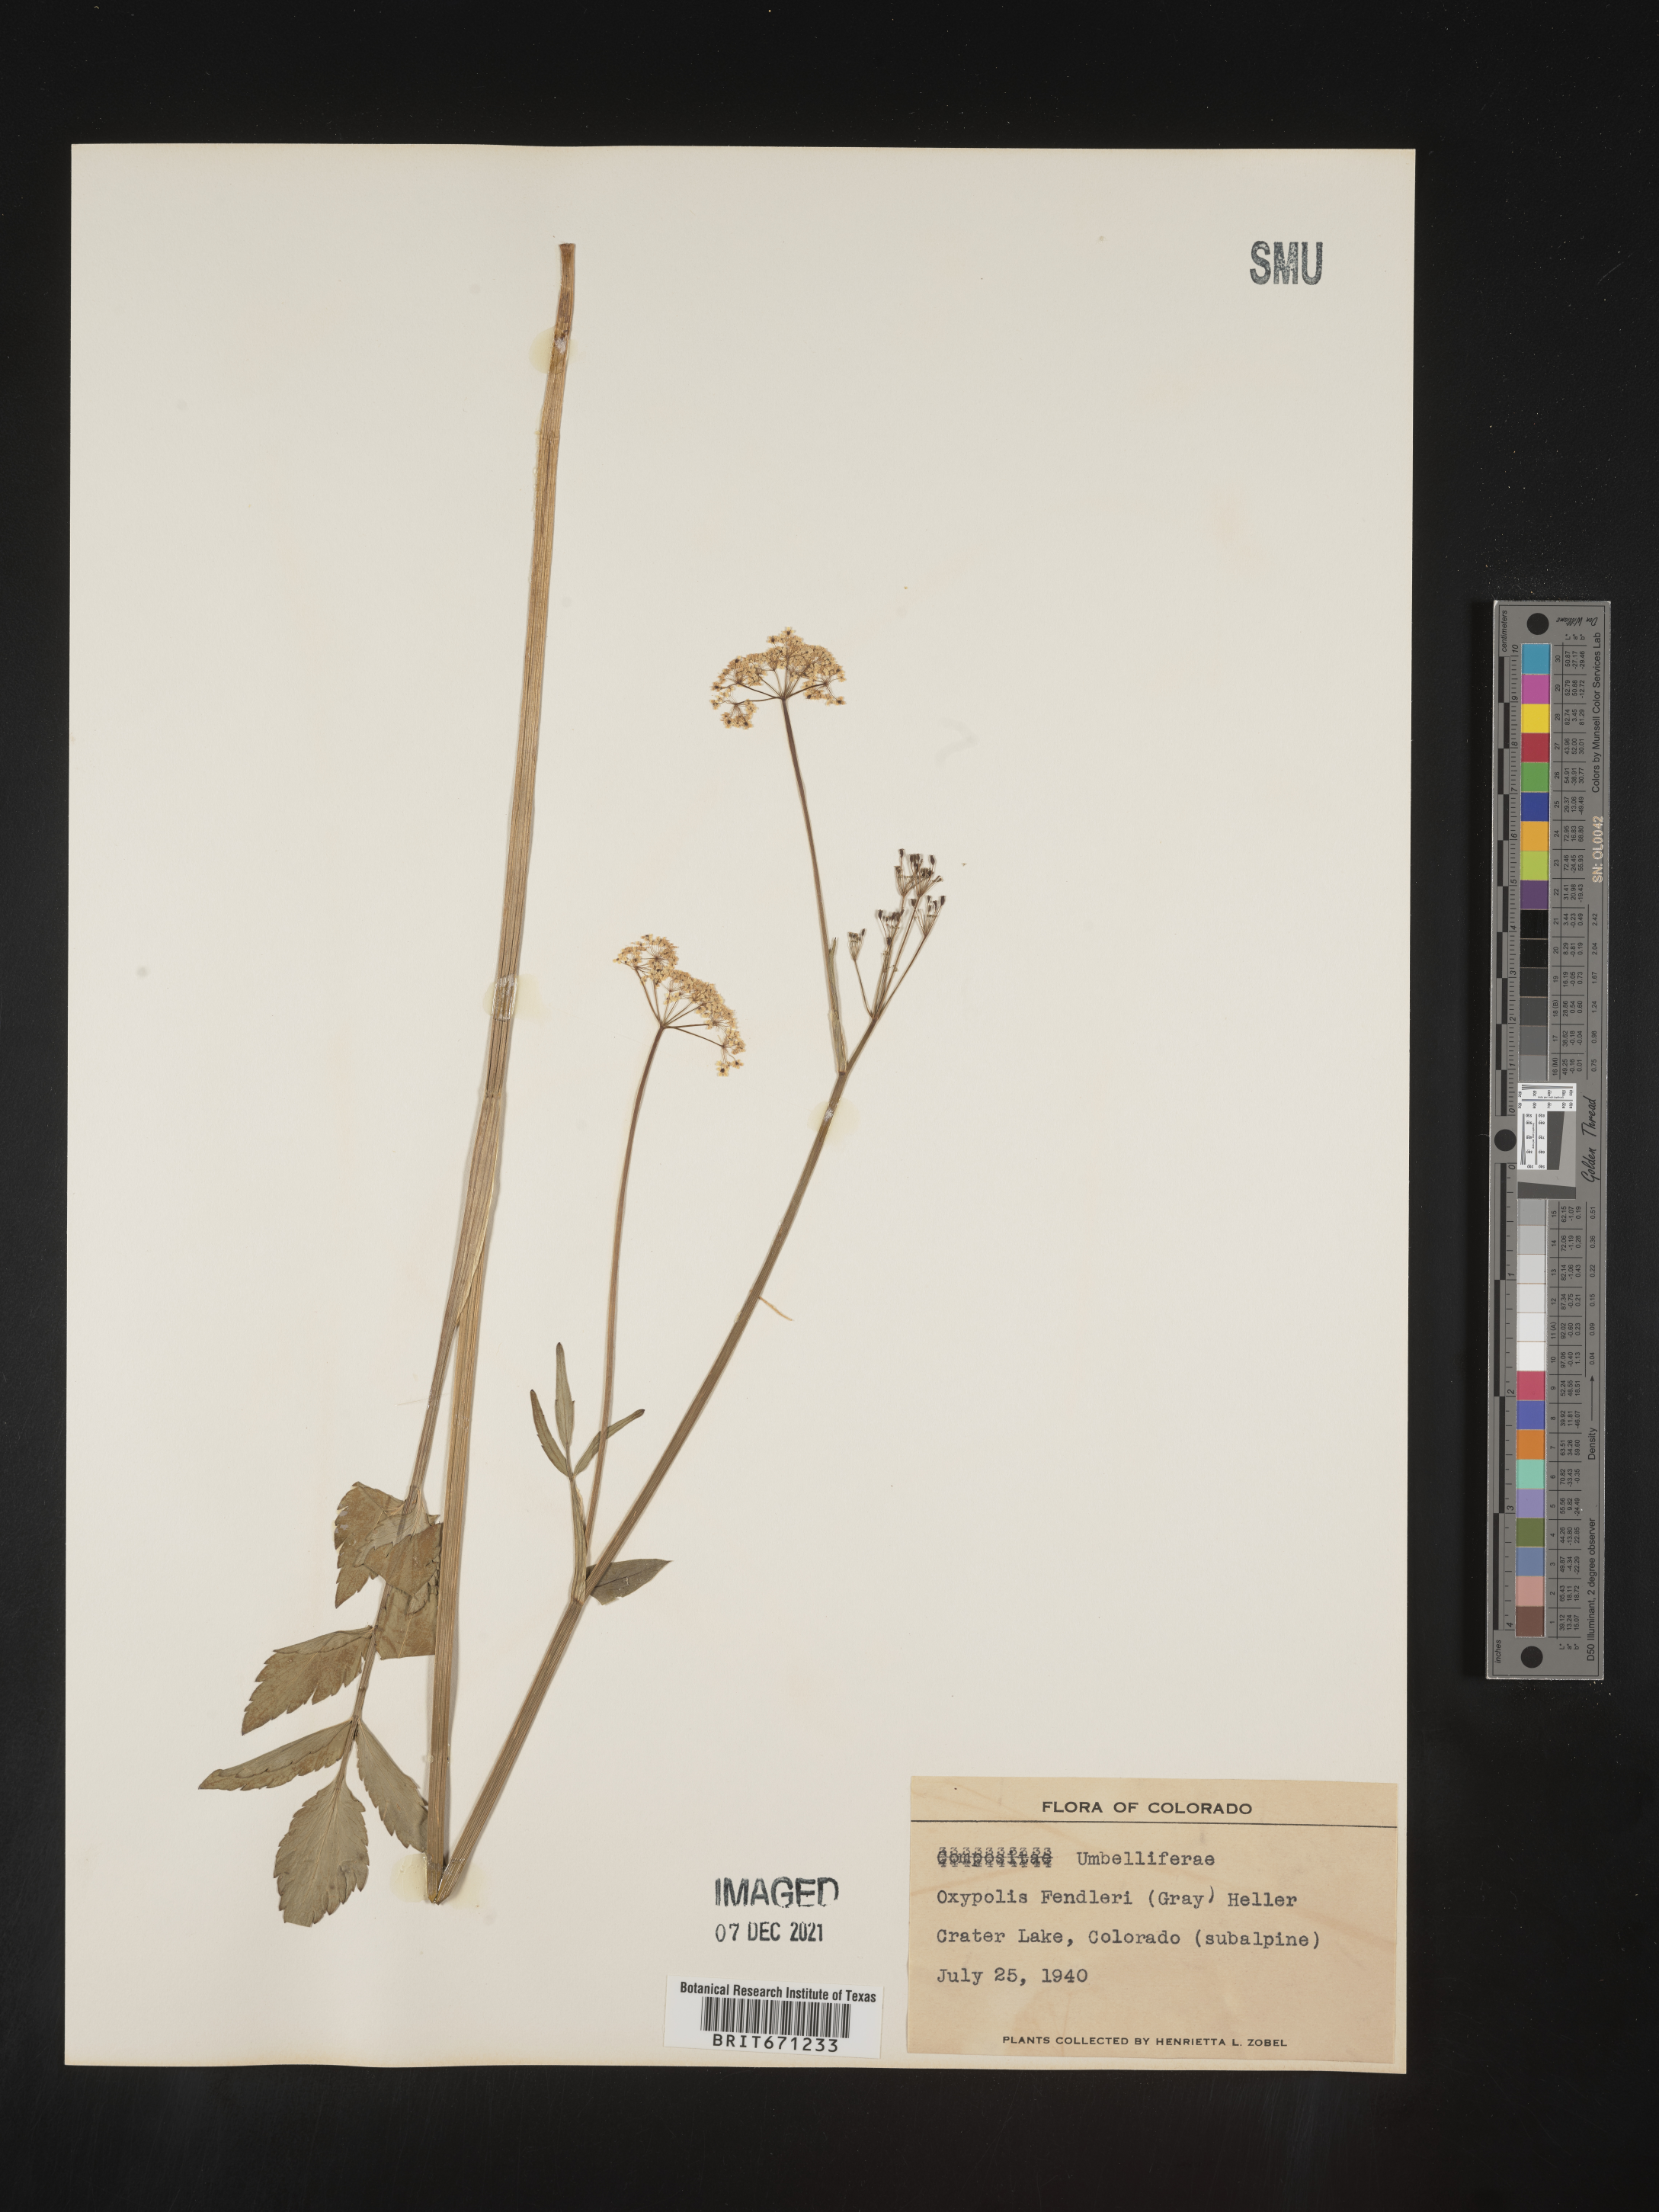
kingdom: Plantae
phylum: Tracheophyta
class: Magnoliopsida
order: Apiales
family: Apiaceae
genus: Oxypolis
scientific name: Oxypolis fendleri
